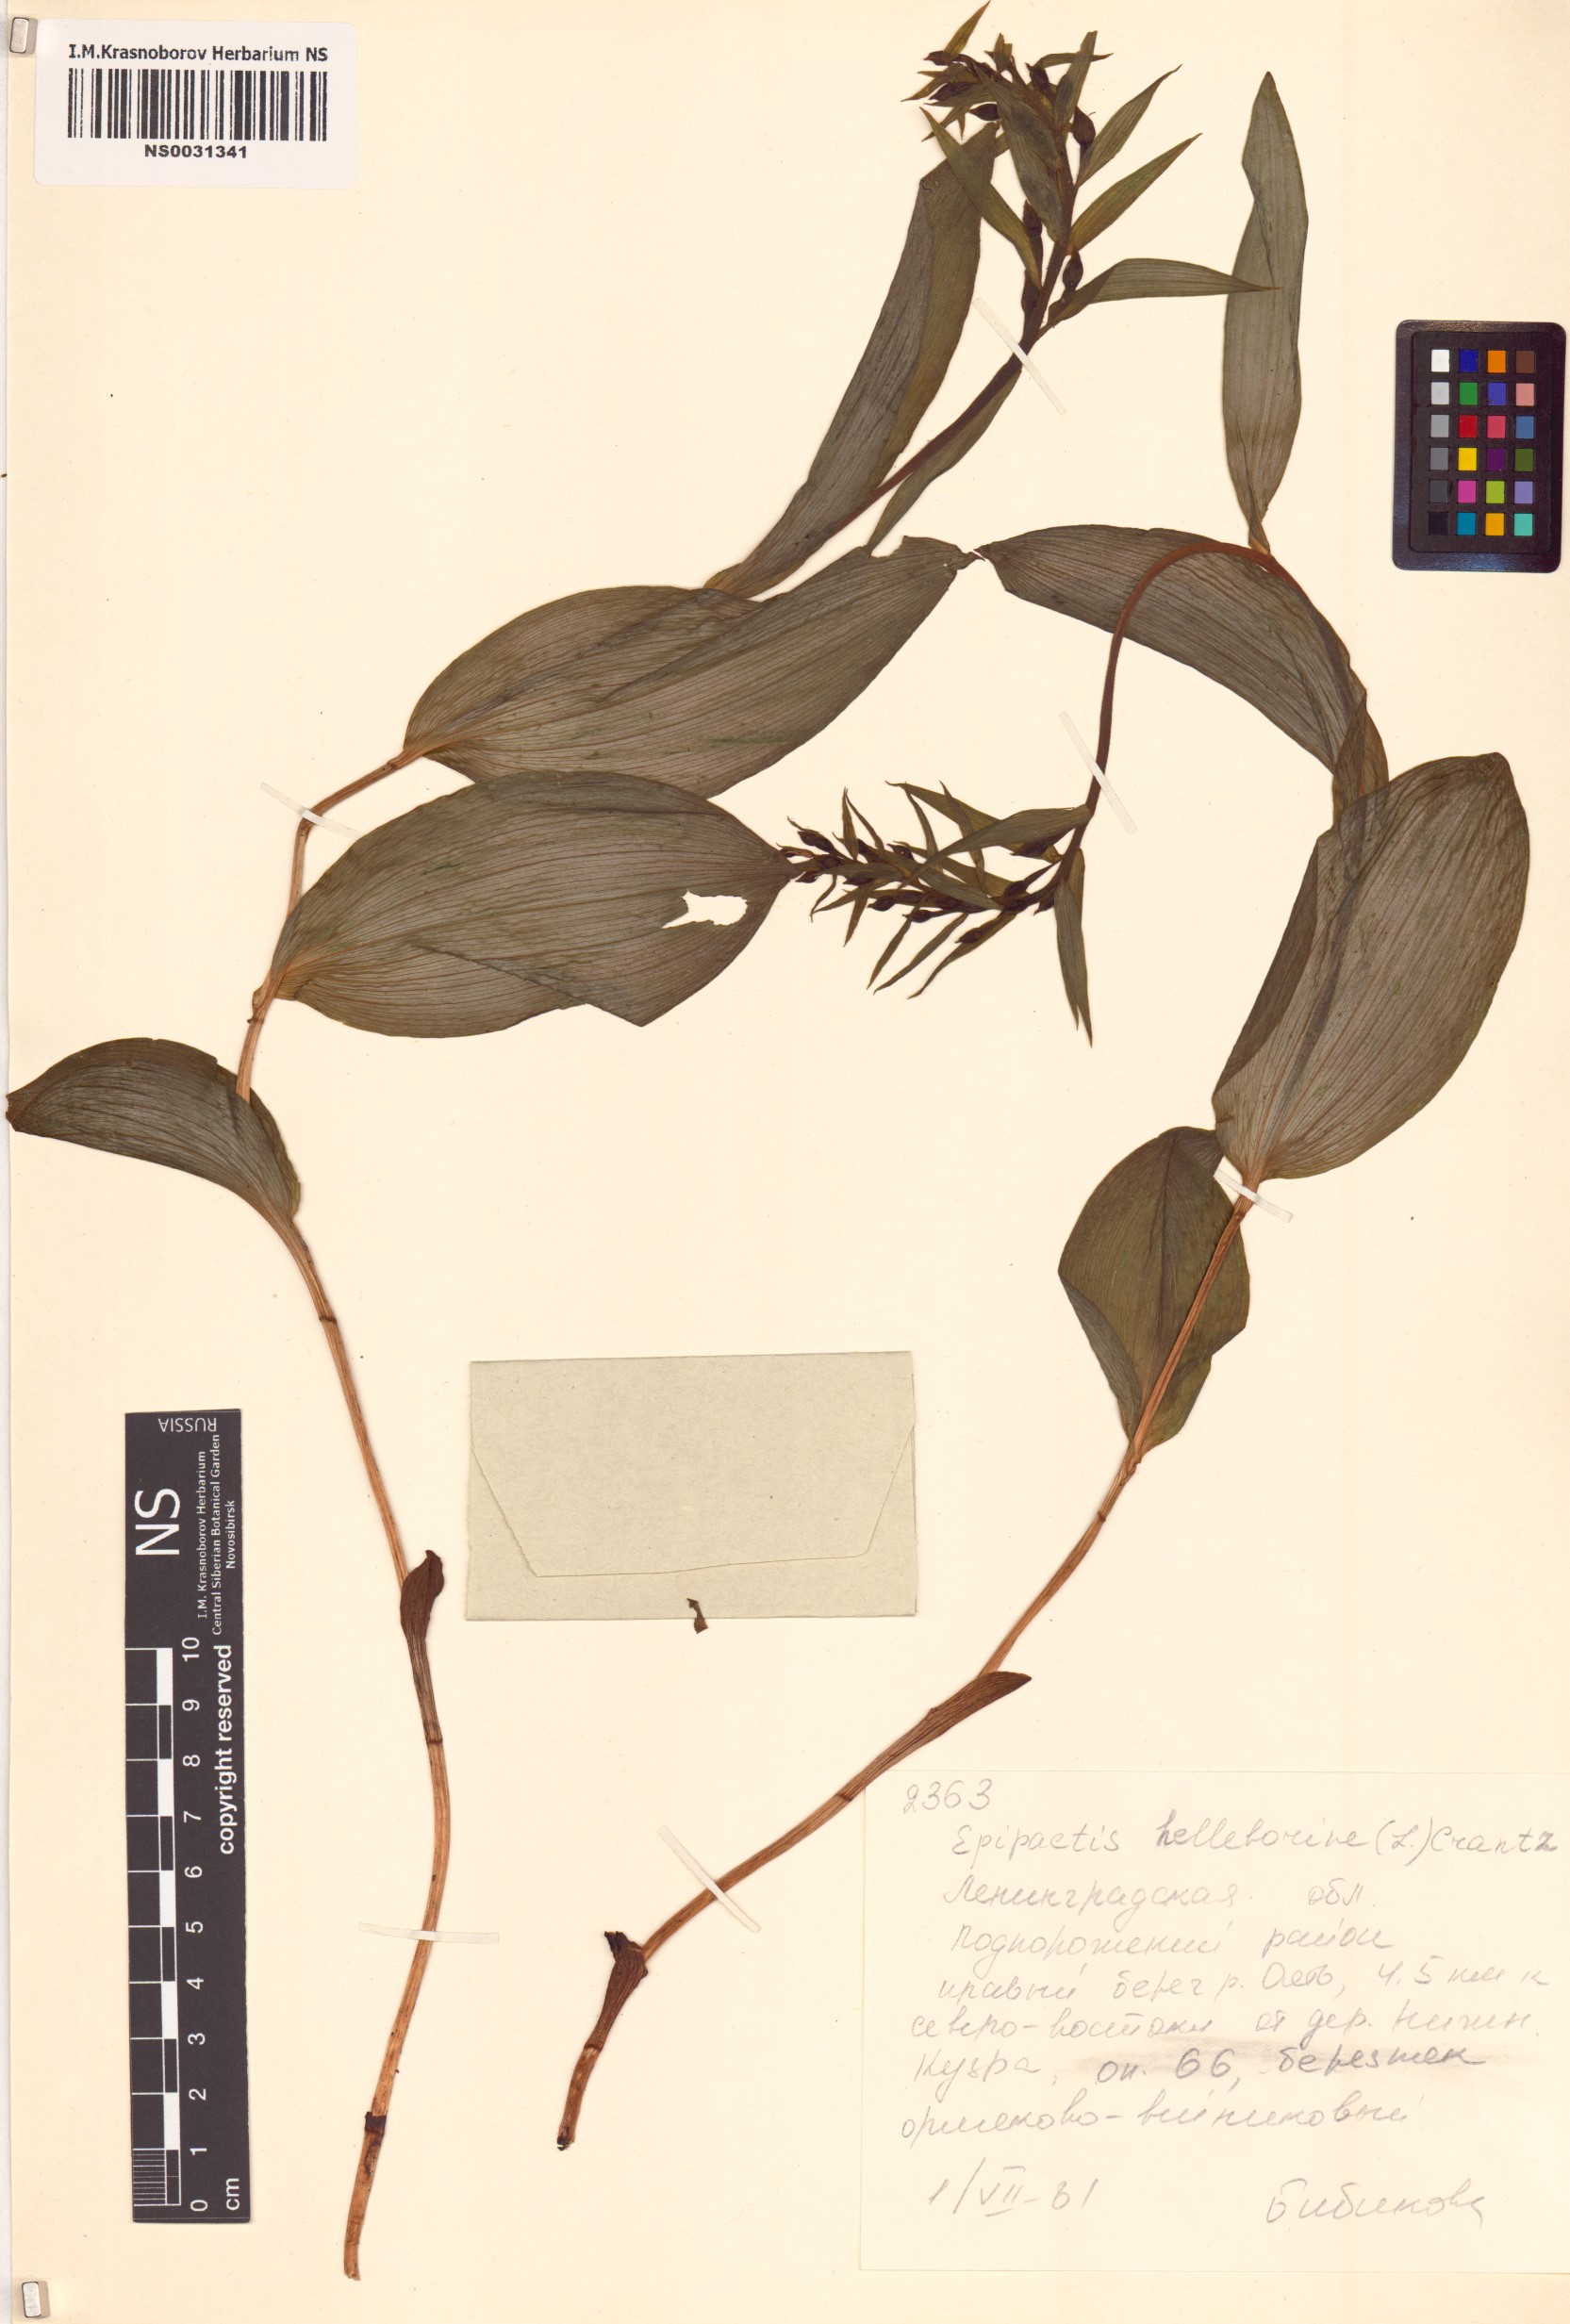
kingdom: Plantae
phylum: Tracheophyta
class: Liliopsida
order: Asparagales
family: Orchidaceae
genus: Epipactis
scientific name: Epipactis helleborine
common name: Broad-leaved helleborine
